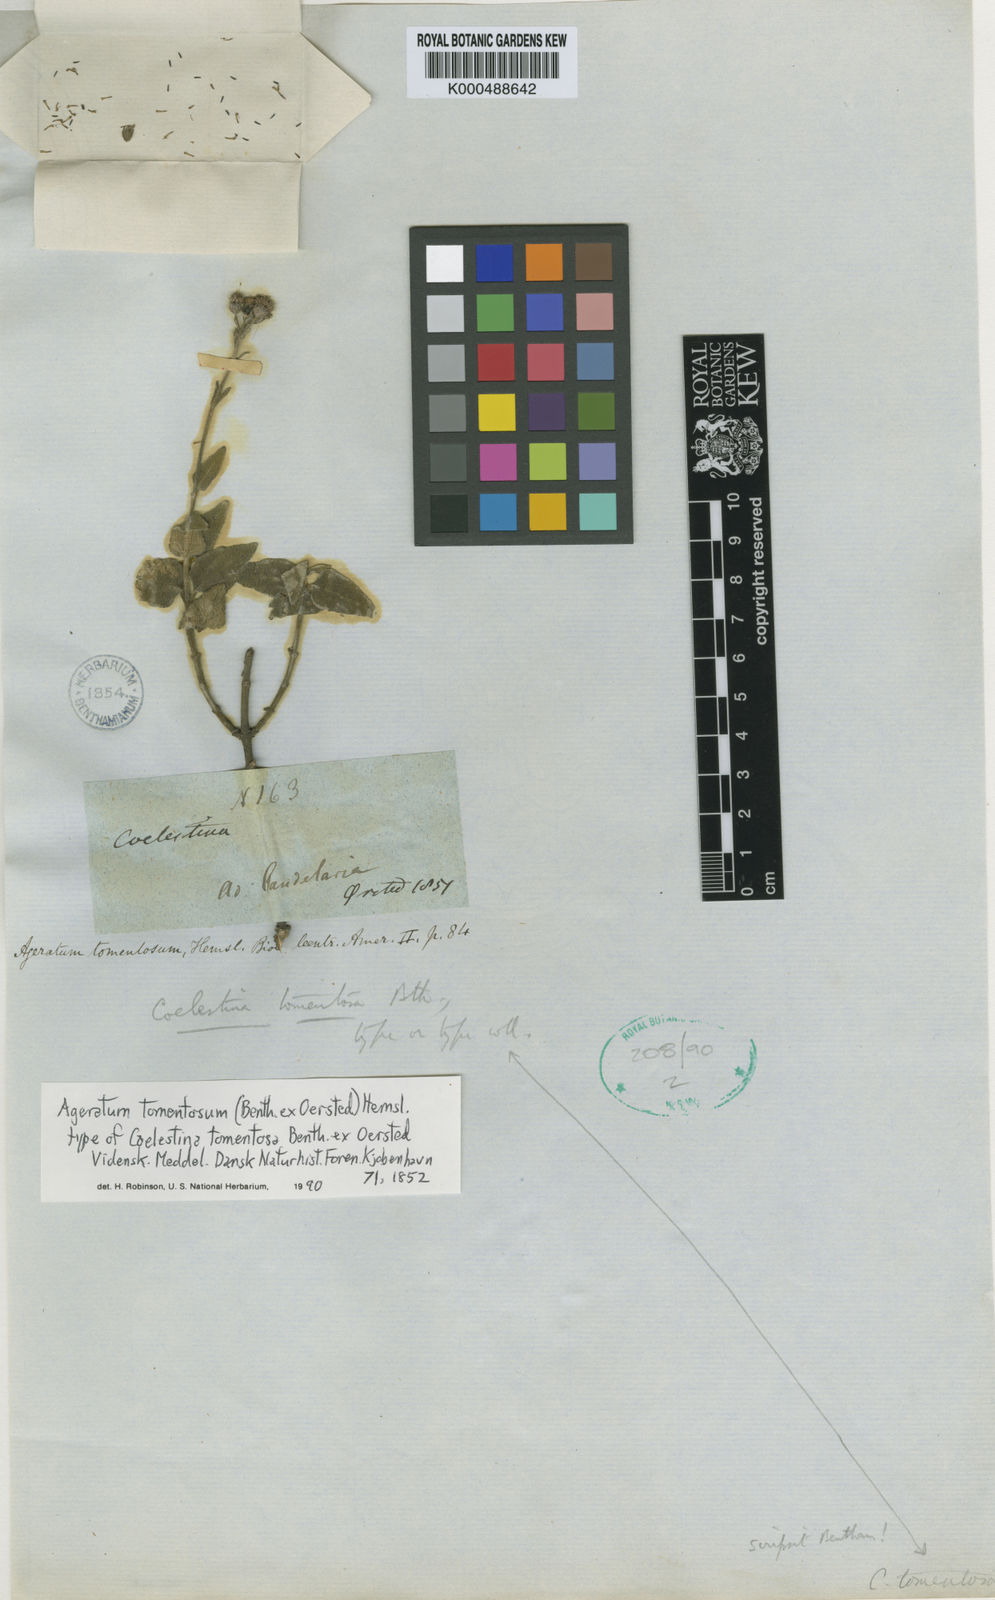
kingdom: Plantae
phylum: Tracheophyta
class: Magnoliopsida
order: Asterales
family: Asteraceae
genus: Ageratum
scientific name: Ageratum tomentosum
